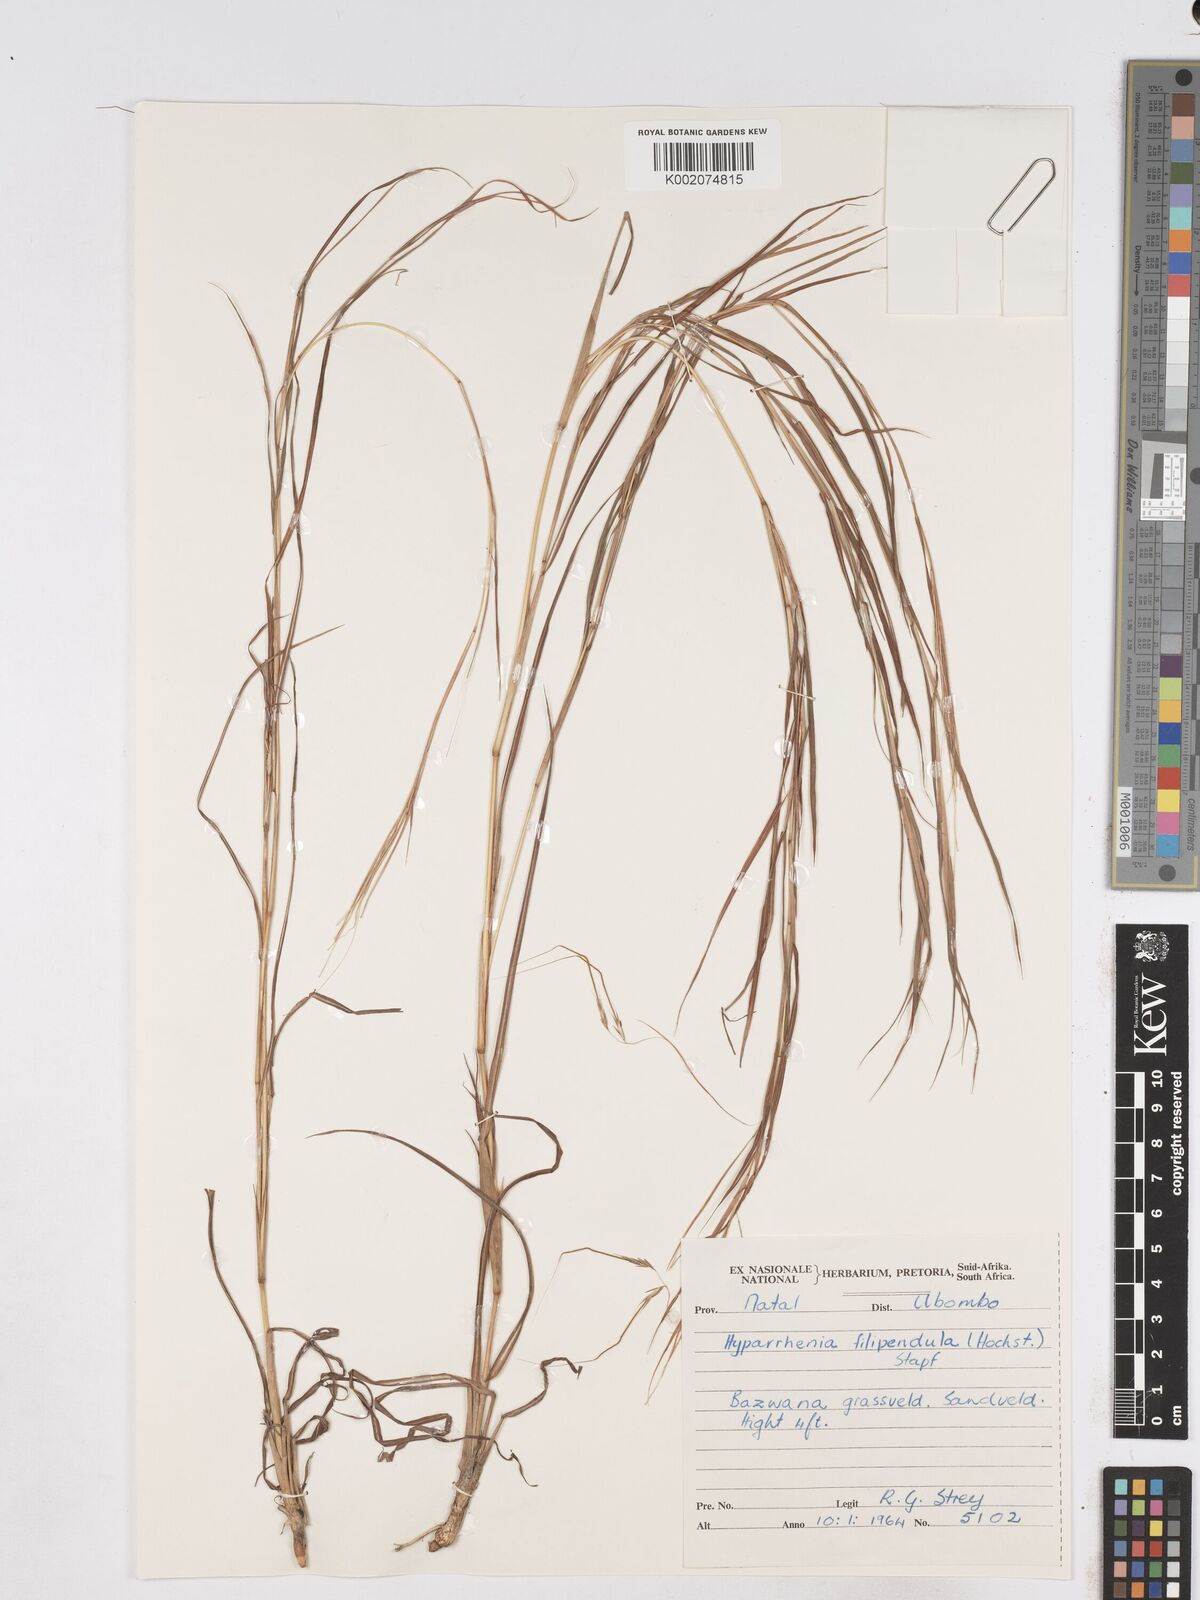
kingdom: Plantae
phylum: Tracheophyta
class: Liliopsida
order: Poales
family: Poaceae
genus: Hyparrhenia
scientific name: Hyparrhenia filipendula
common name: Tambookie grass
